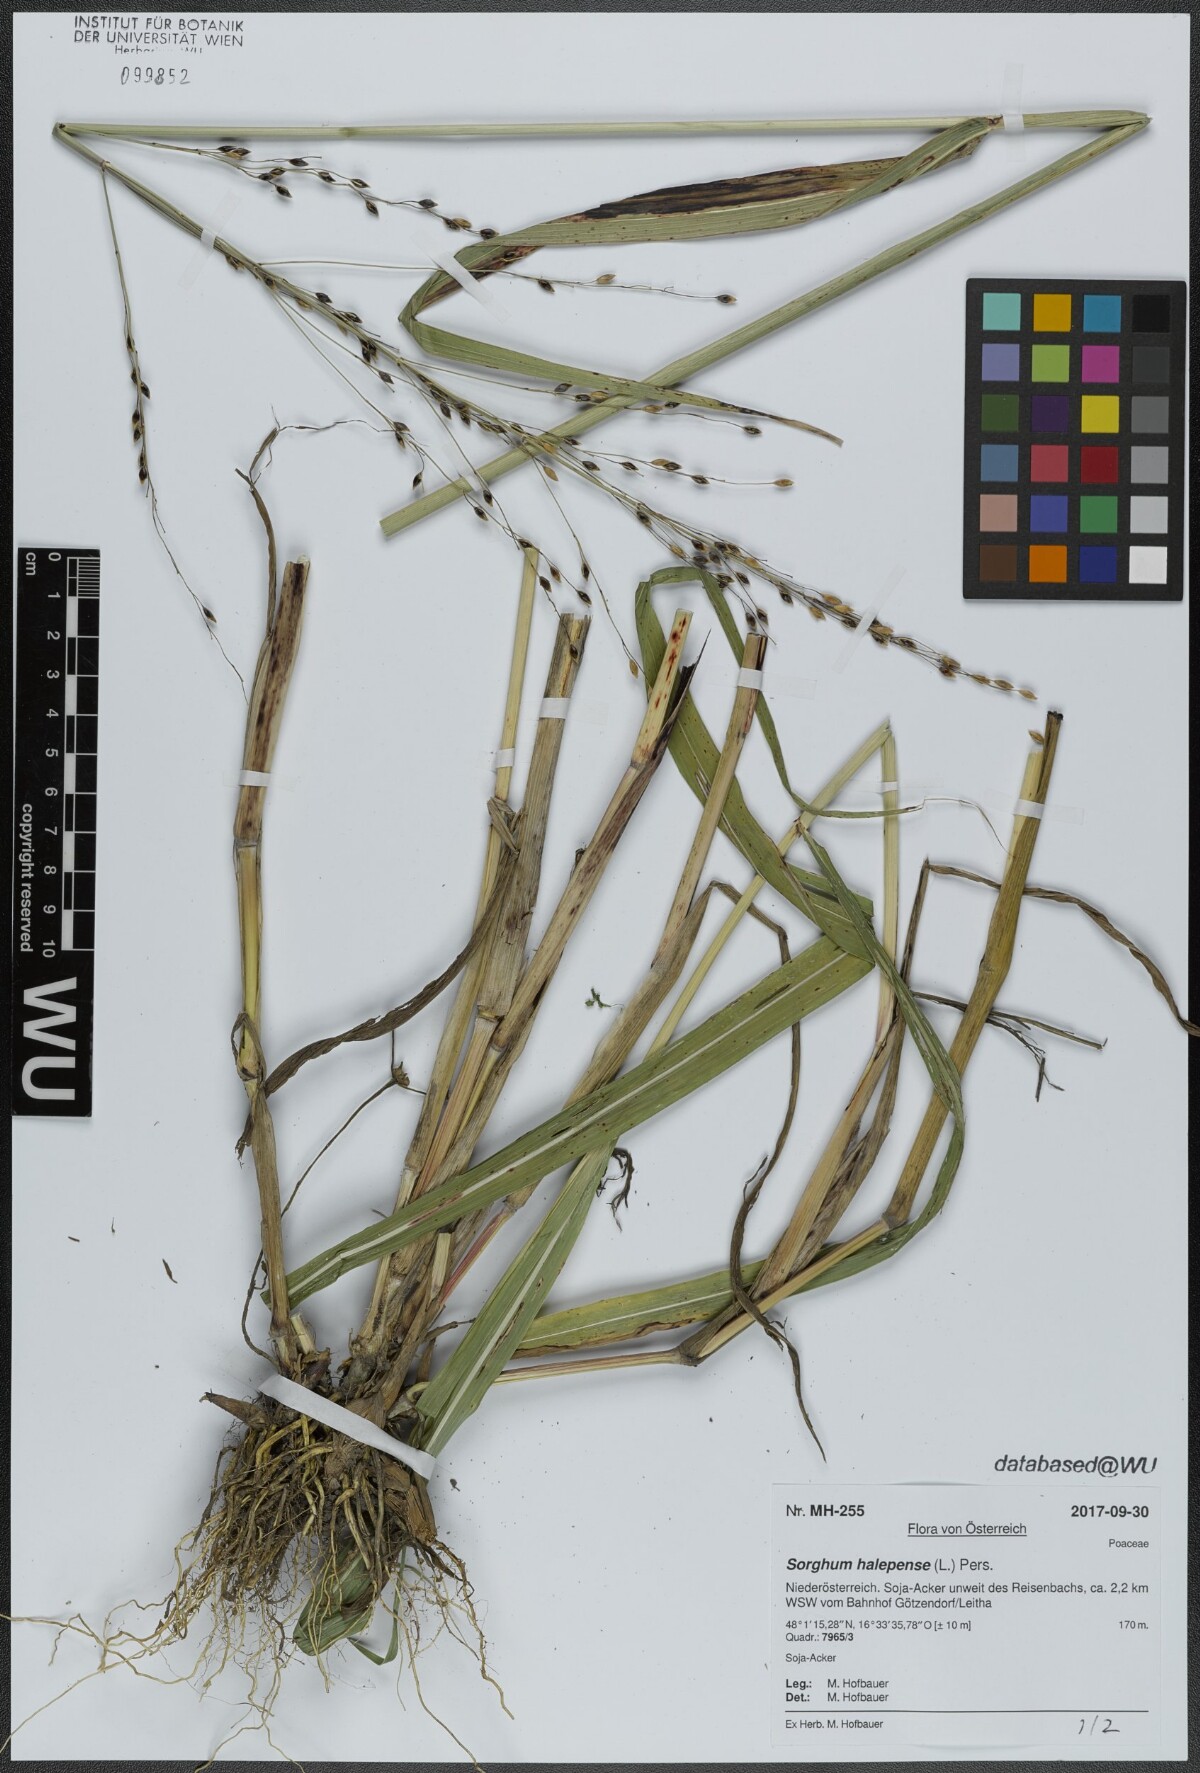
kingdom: Plantae
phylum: Tracheophyta
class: Liliopsida
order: Poales
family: Poaceae
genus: Sorghum
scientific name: Sorghum halepense
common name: Johnson-grass
